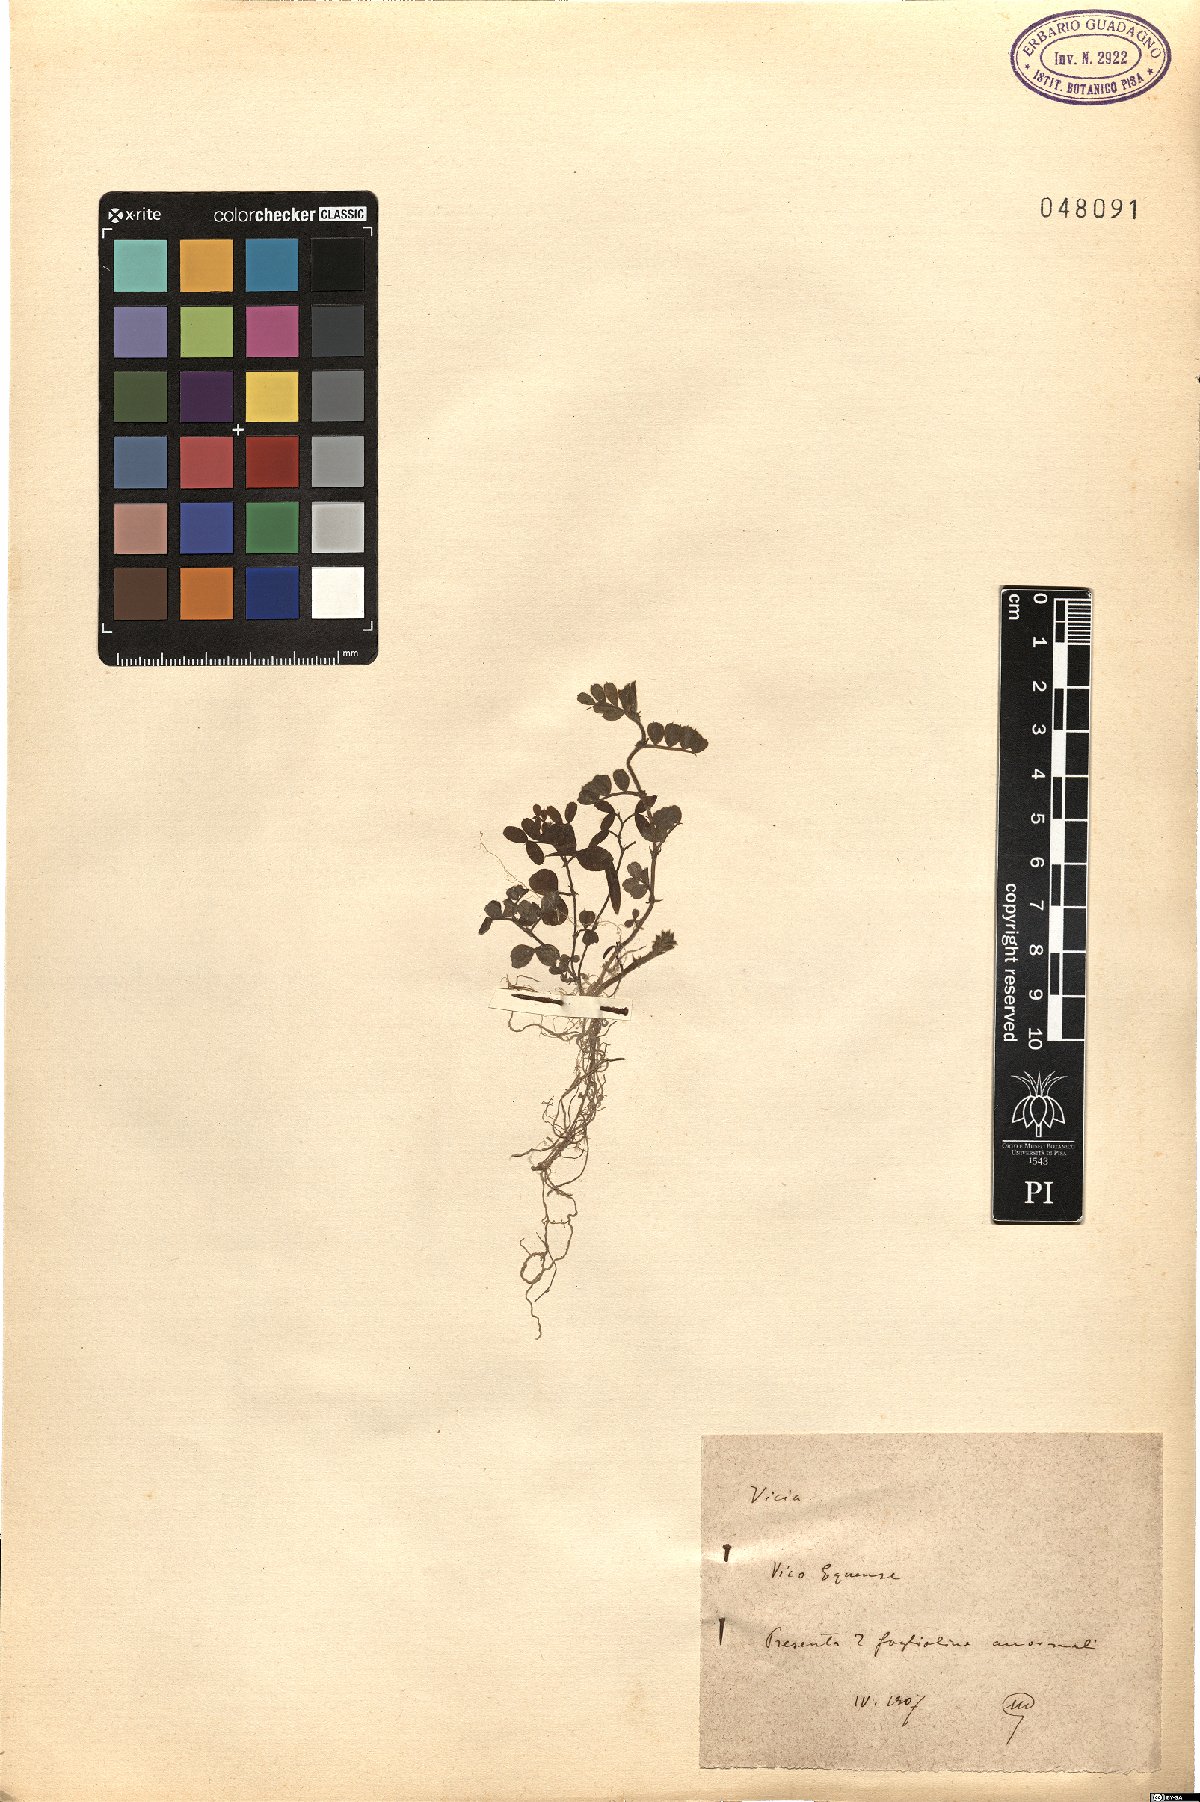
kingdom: Plantae
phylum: Tracheophyta
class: Magnoliopsida
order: Fabales
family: Fabaceae
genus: Vicia
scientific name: Vicia
